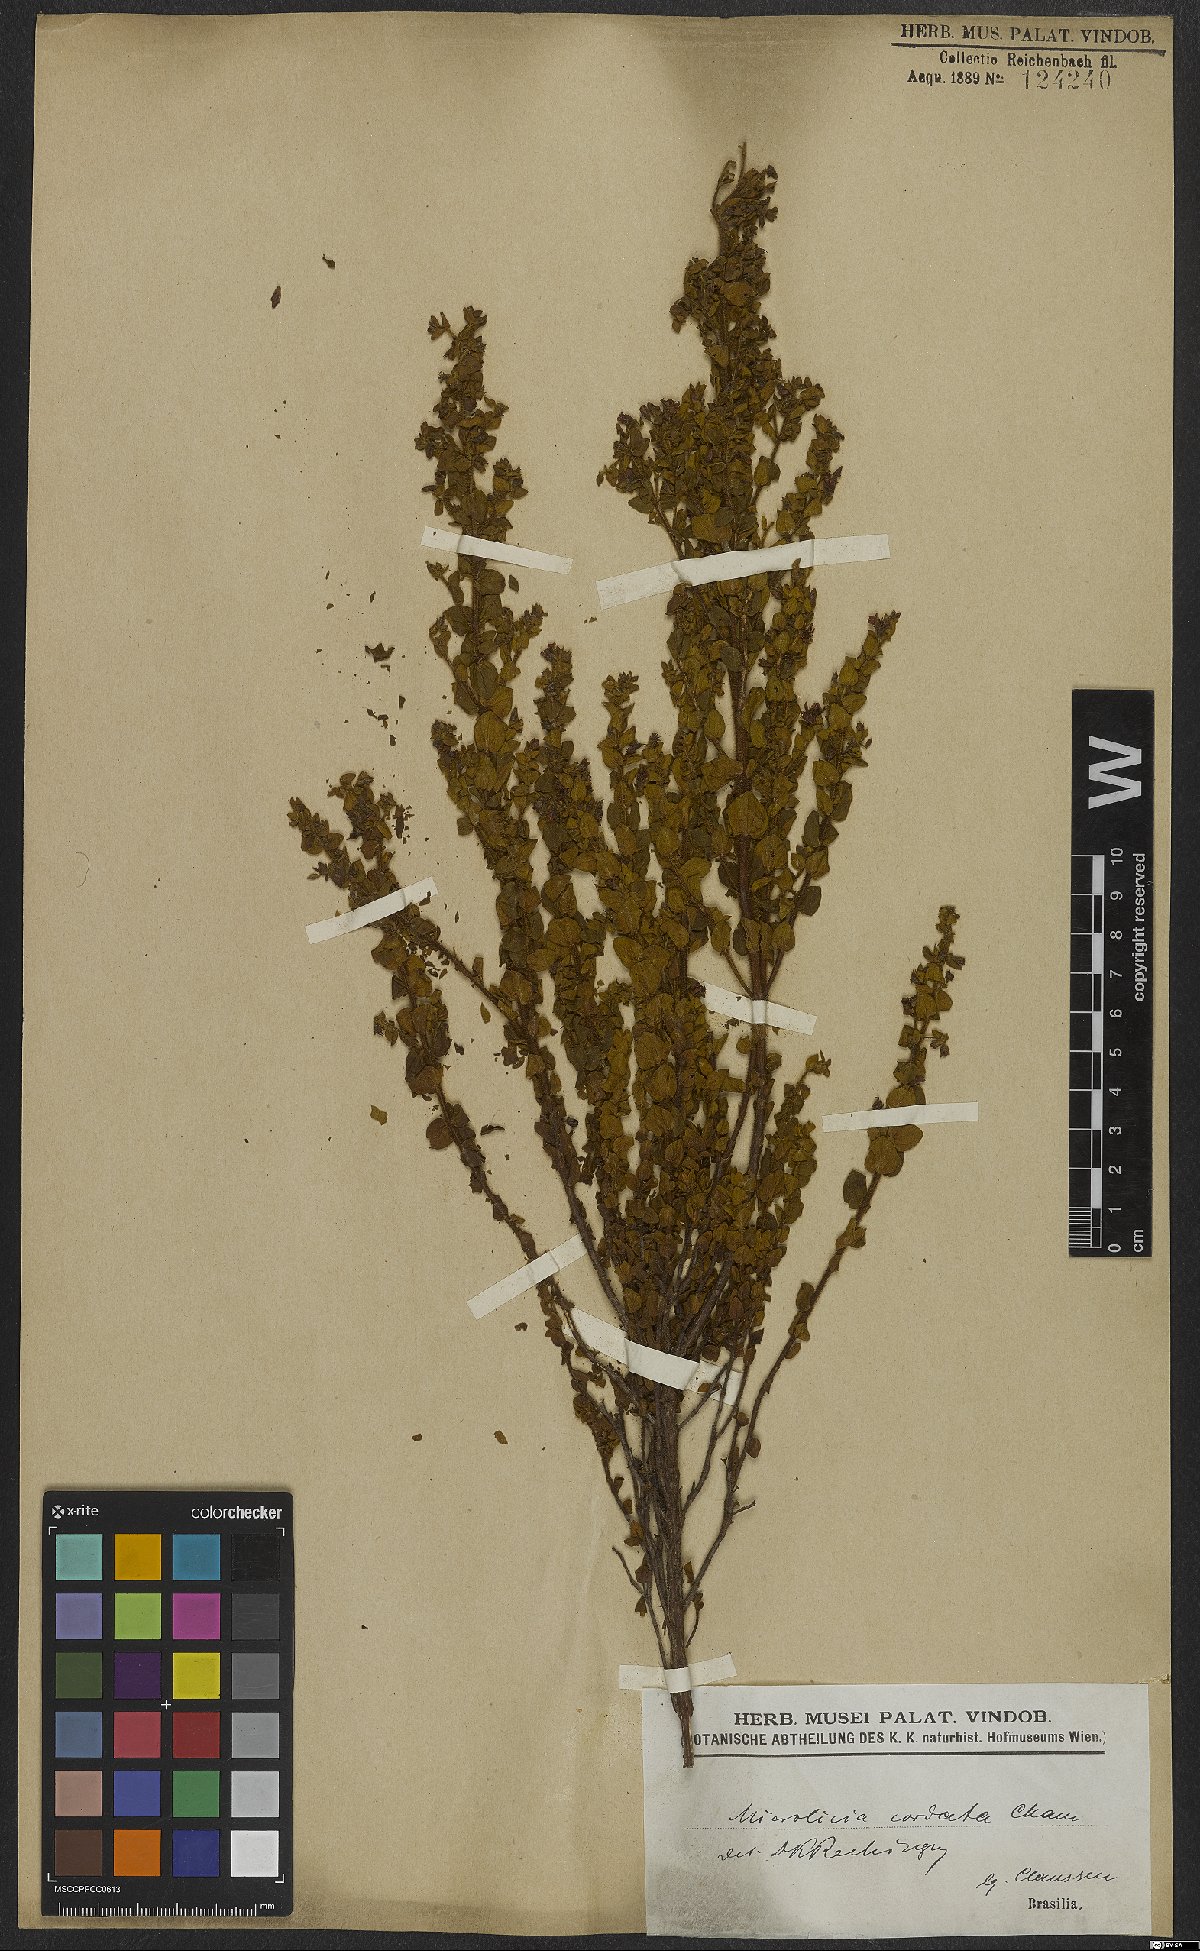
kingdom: Plantae
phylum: Tracheophyta
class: Magnoliopsida
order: Myrtales
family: Melastomataceae
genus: Microlicia
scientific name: Microlicia cordata
